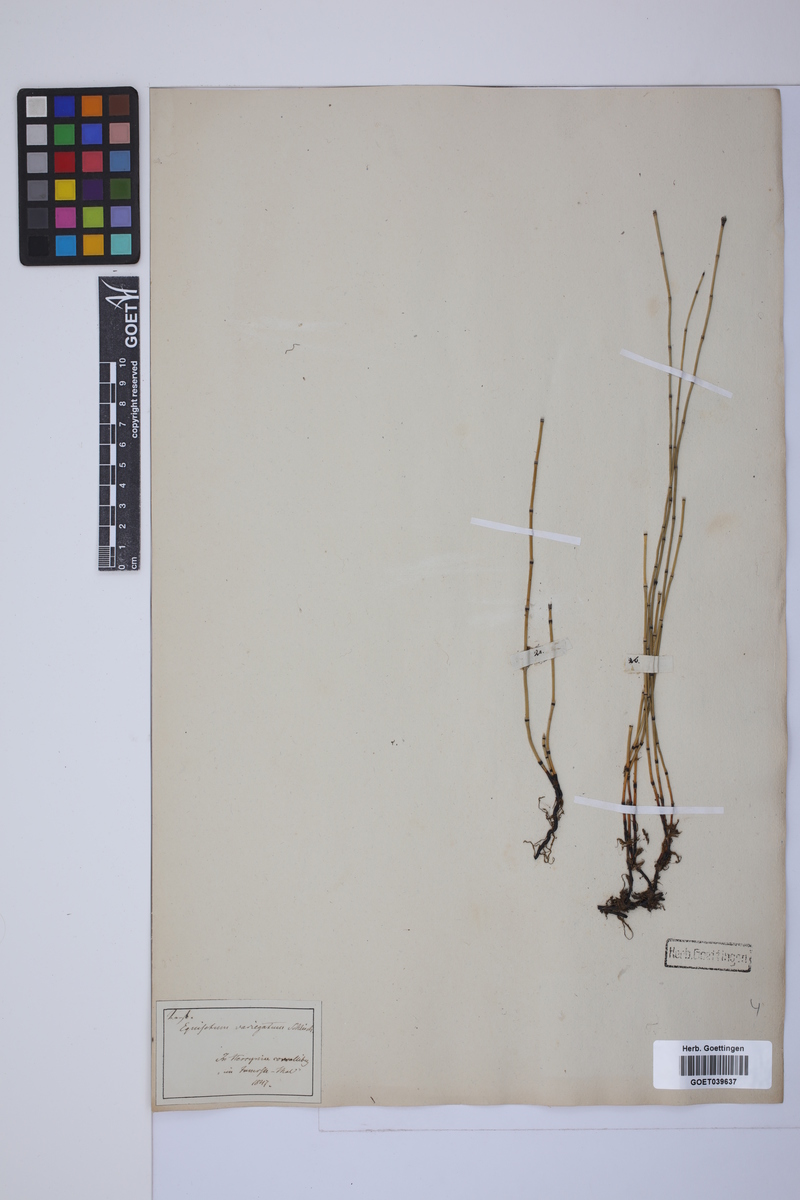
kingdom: Plantae
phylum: Tracheophyta
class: Polypodiopsida
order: Equisetales
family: Equisetaceae
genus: Equisetum
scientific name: Equisetum variegatum
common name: Variegated horsetail
